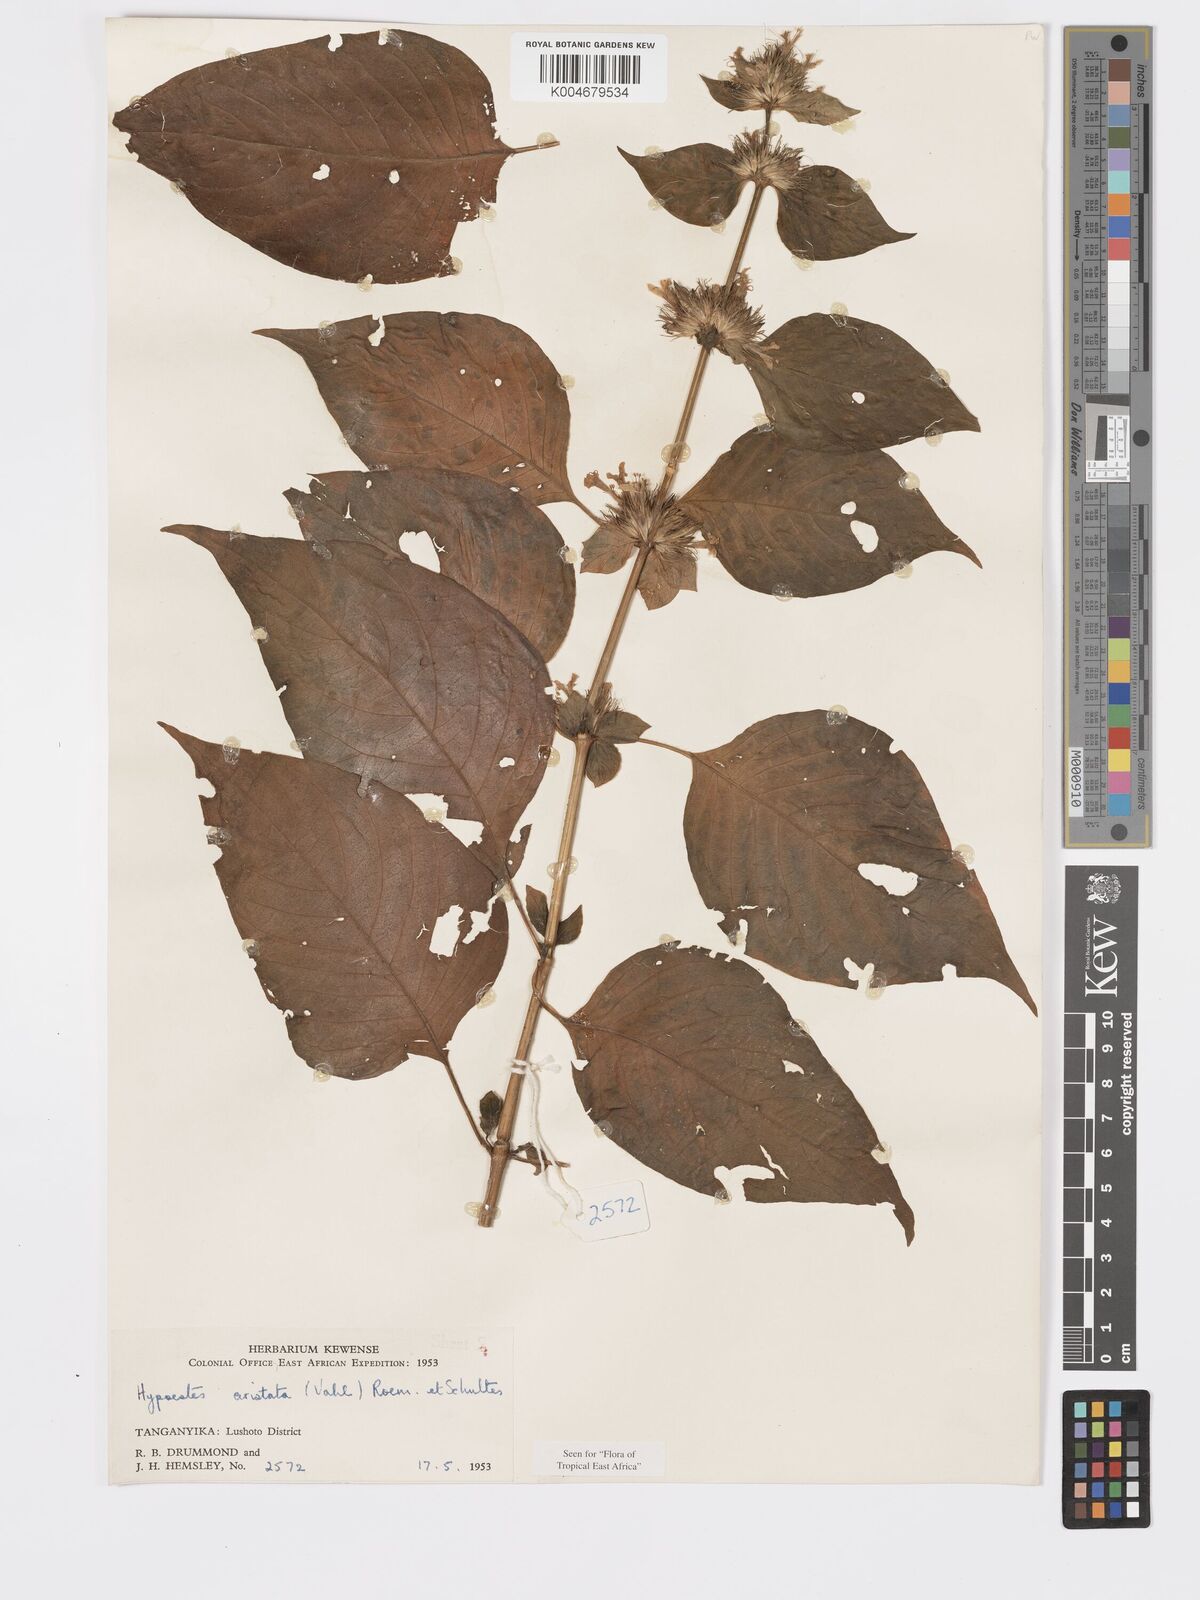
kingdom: Plantae
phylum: Tracheophyta
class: Magnoliopsida
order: Lamiales
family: Acanthaceae
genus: Hypoestes
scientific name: Hypoestes aristata
